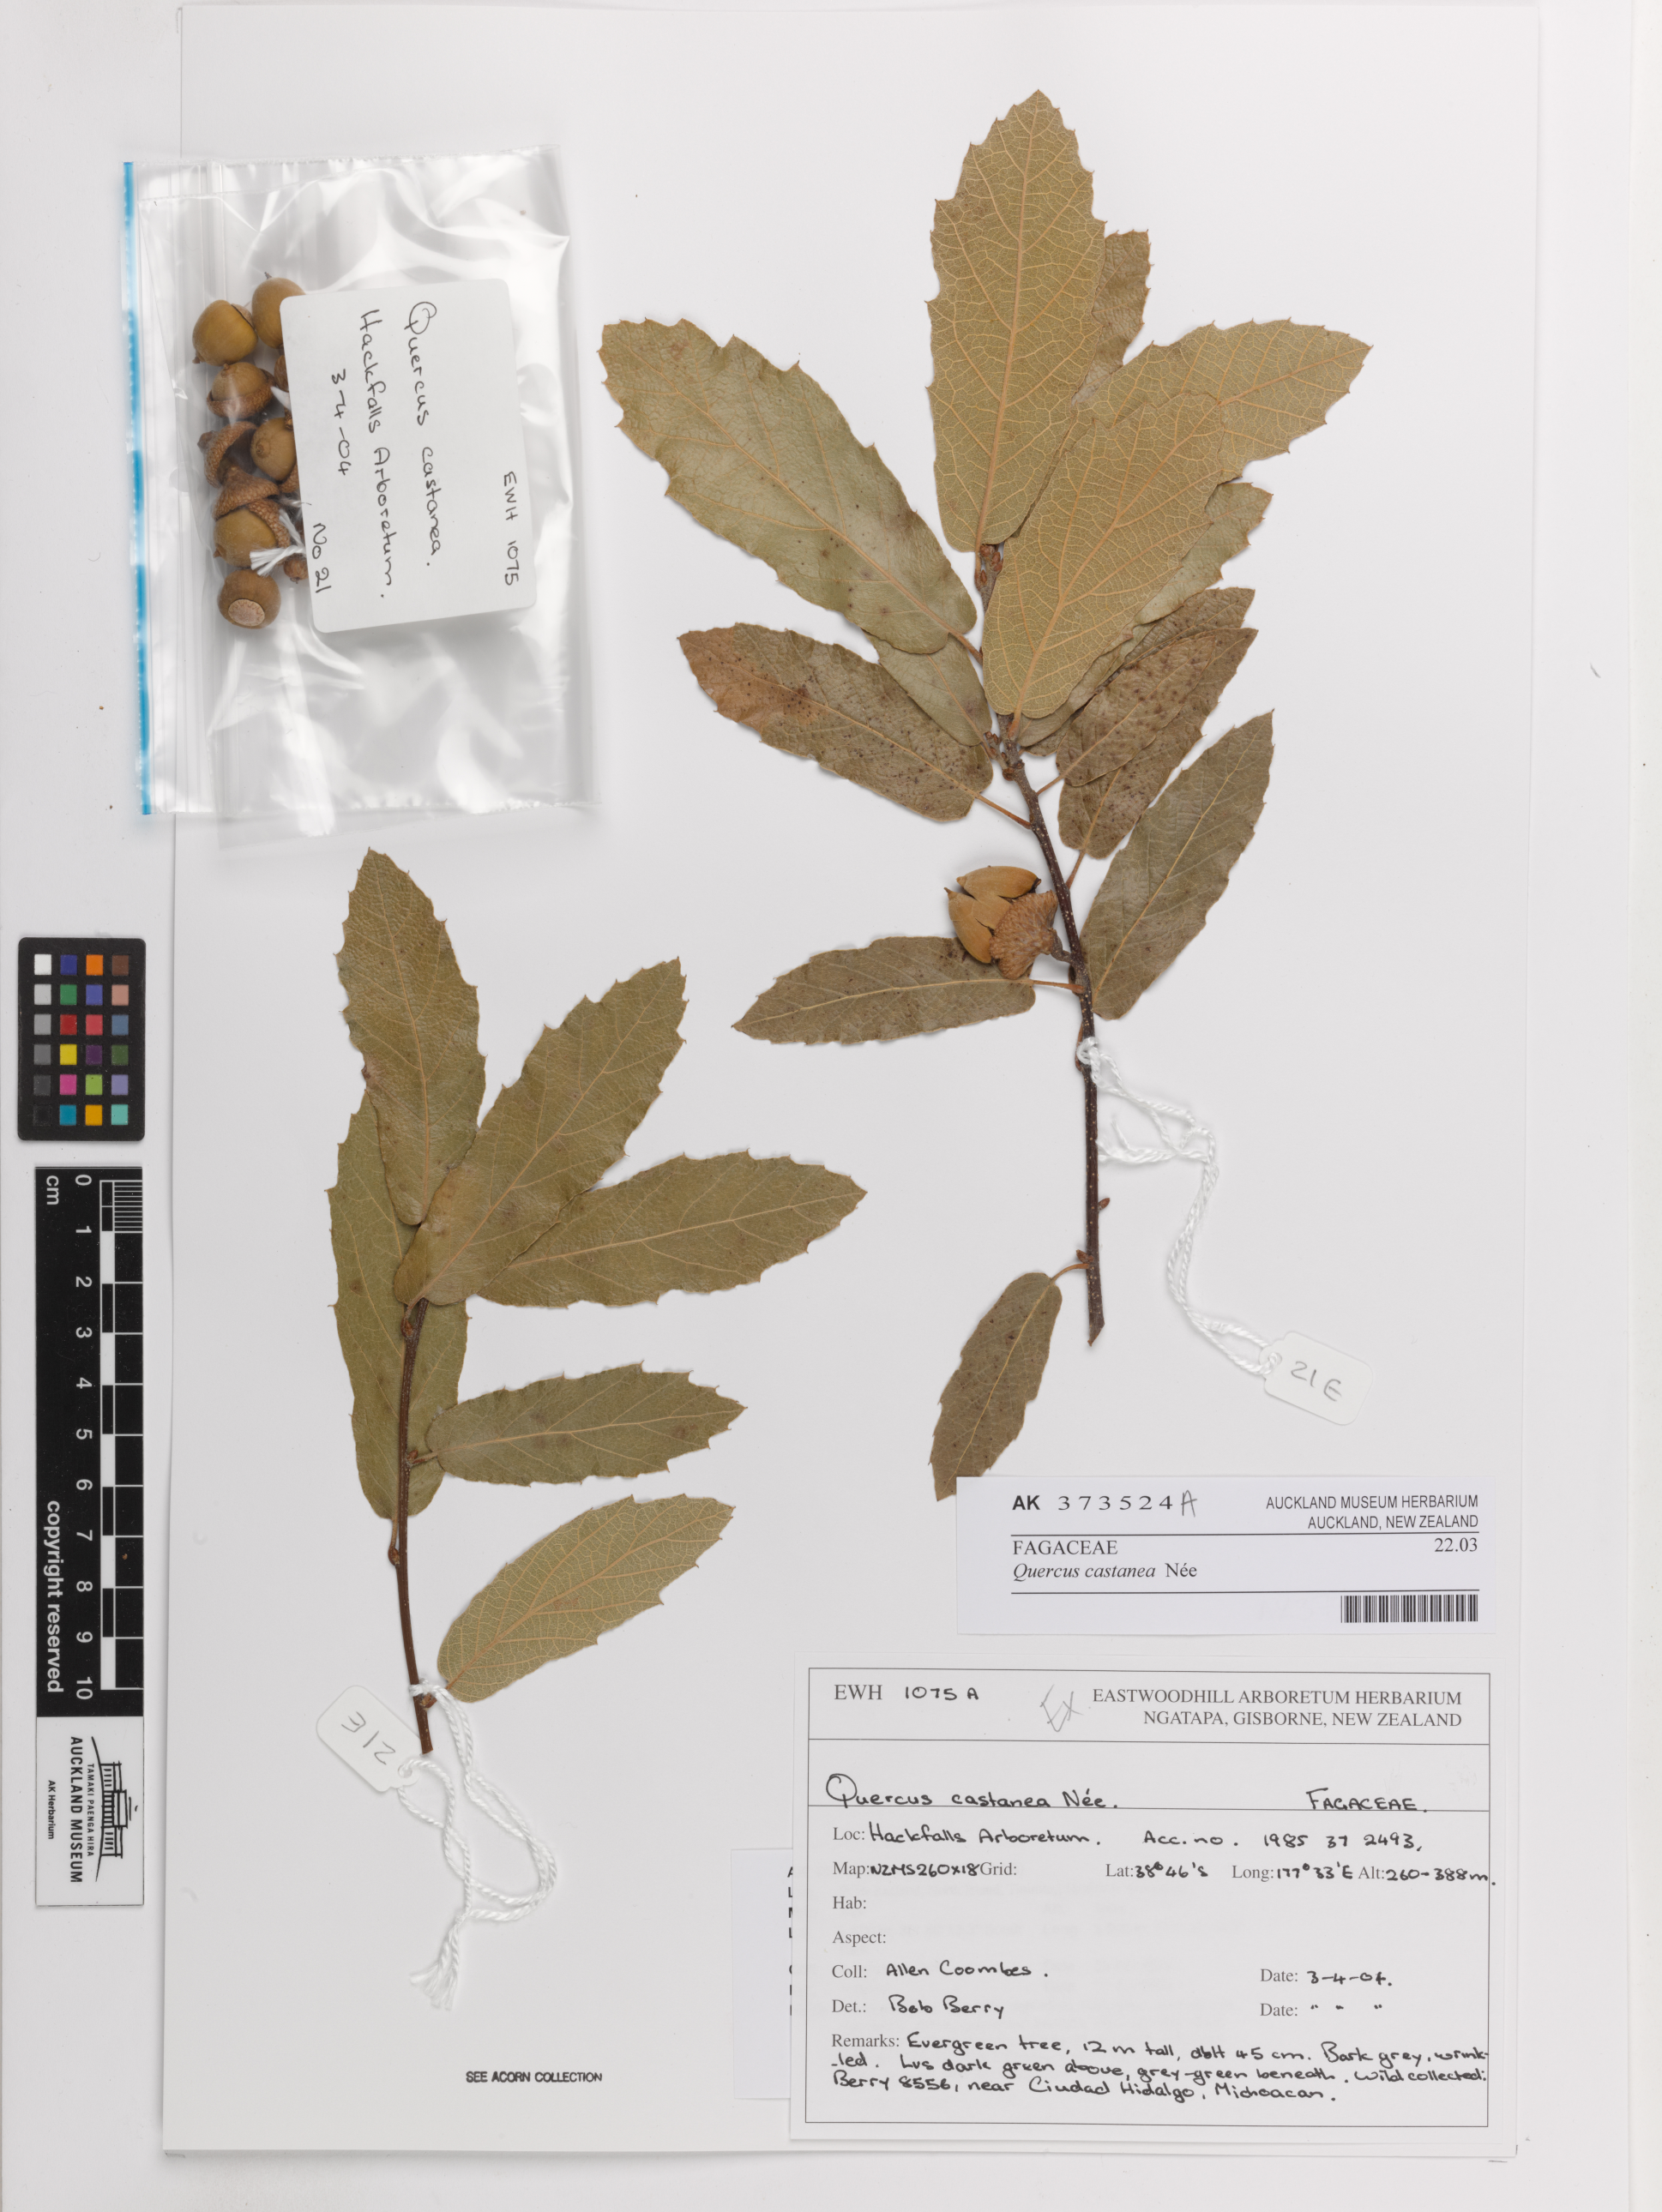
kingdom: Plantae
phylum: Tracheophyta
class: Magnoliopsida
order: Fagales
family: Fagaceae
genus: Quercus
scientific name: Quercus castanea
